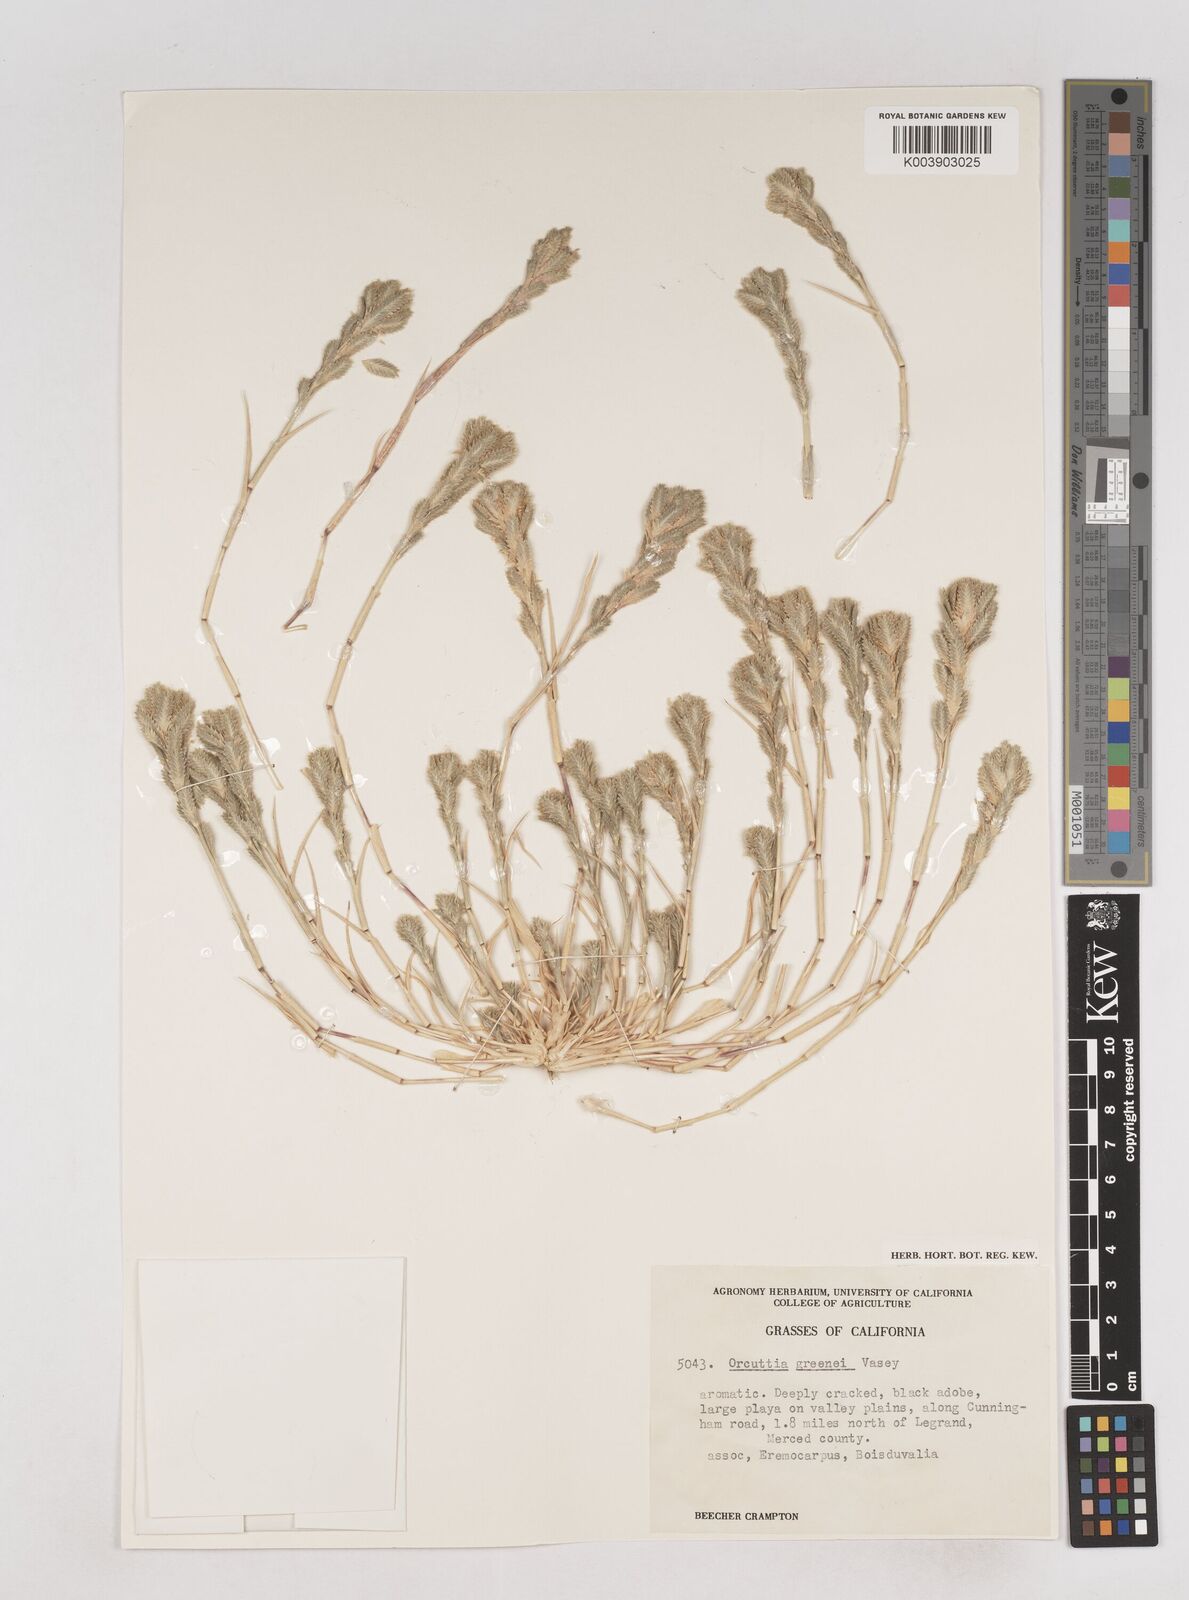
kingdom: Plantae
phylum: Tracheophyta
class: Liliopsida
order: Poales
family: Poaceae
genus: Tuctoria
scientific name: Tuctoria greenei
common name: Awnless spiral grass
